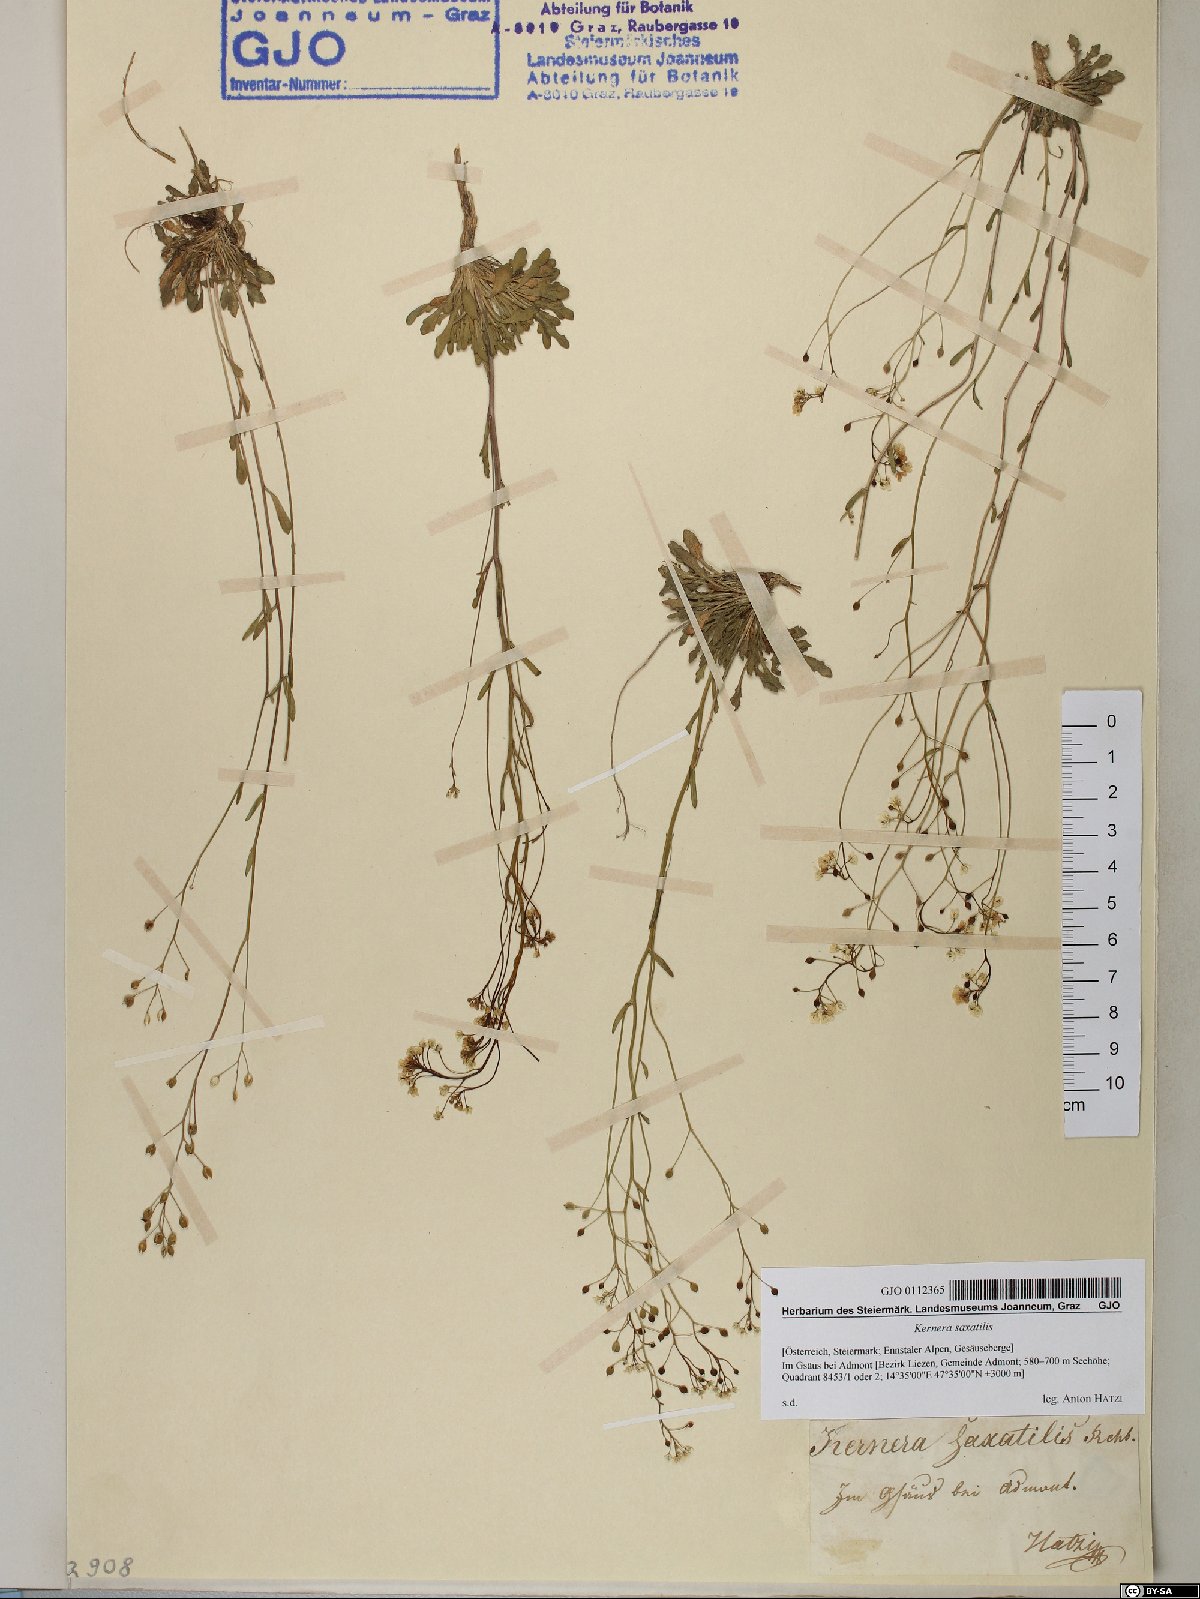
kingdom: Plantae
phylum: Tracheophyta
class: Magnoliopsida
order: Brassicales
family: Brassicaceae
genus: Kernera
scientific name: Kernera saxatilis
